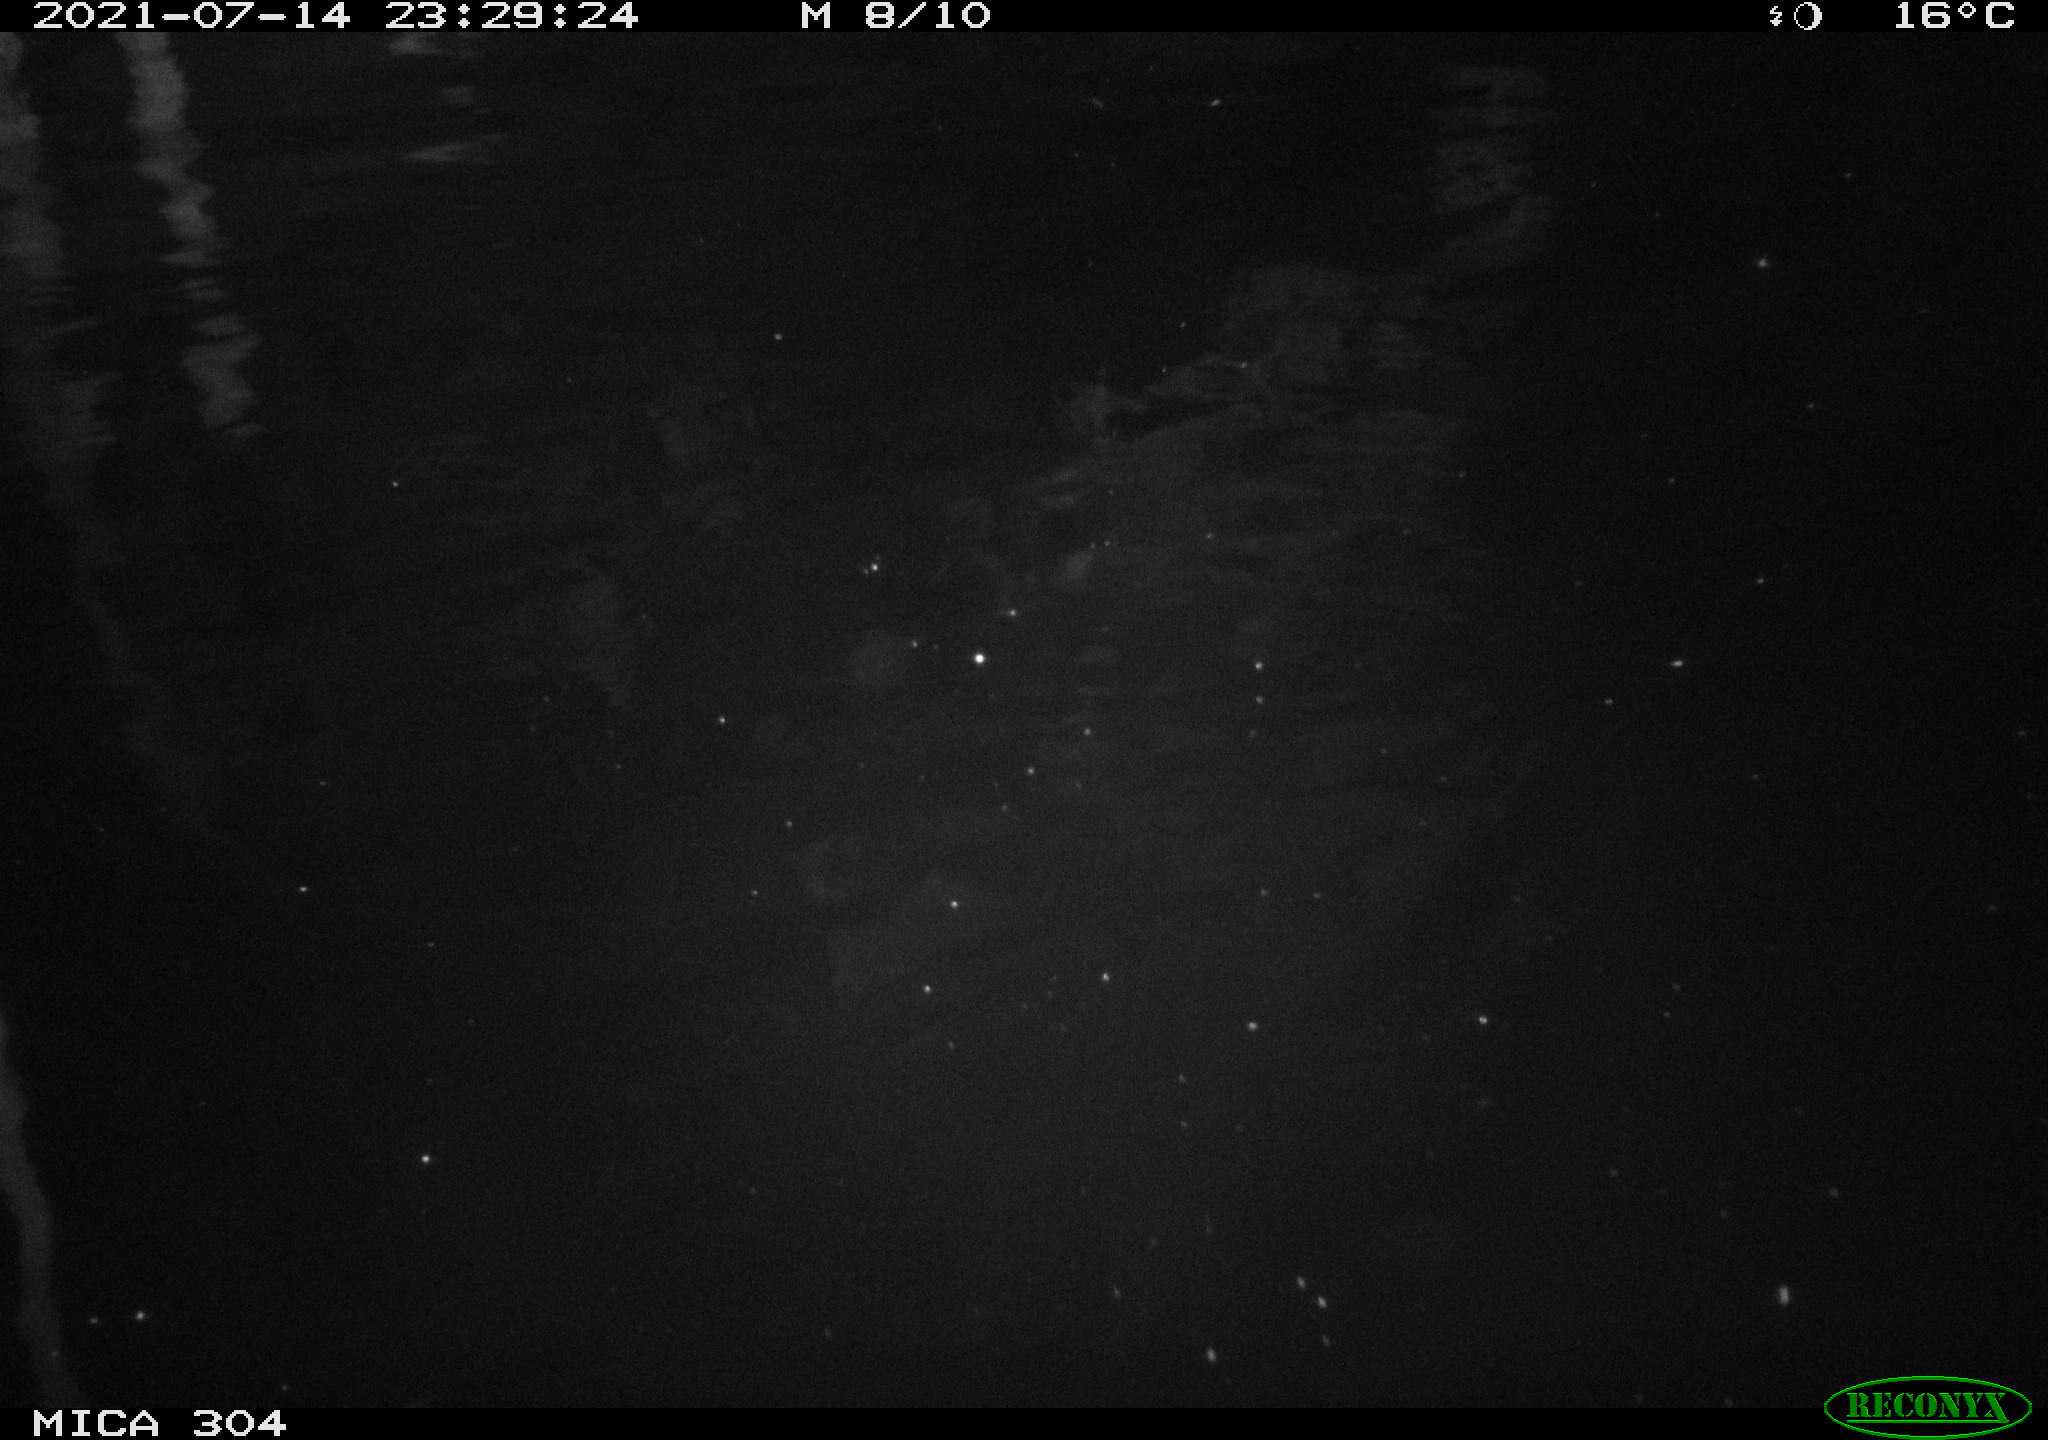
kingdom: Animalia
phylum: Chordata
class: Mammalia
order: Rodentia
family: Muridae
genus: Rattus
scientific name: Rattus norvegicus
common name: Brown rat
